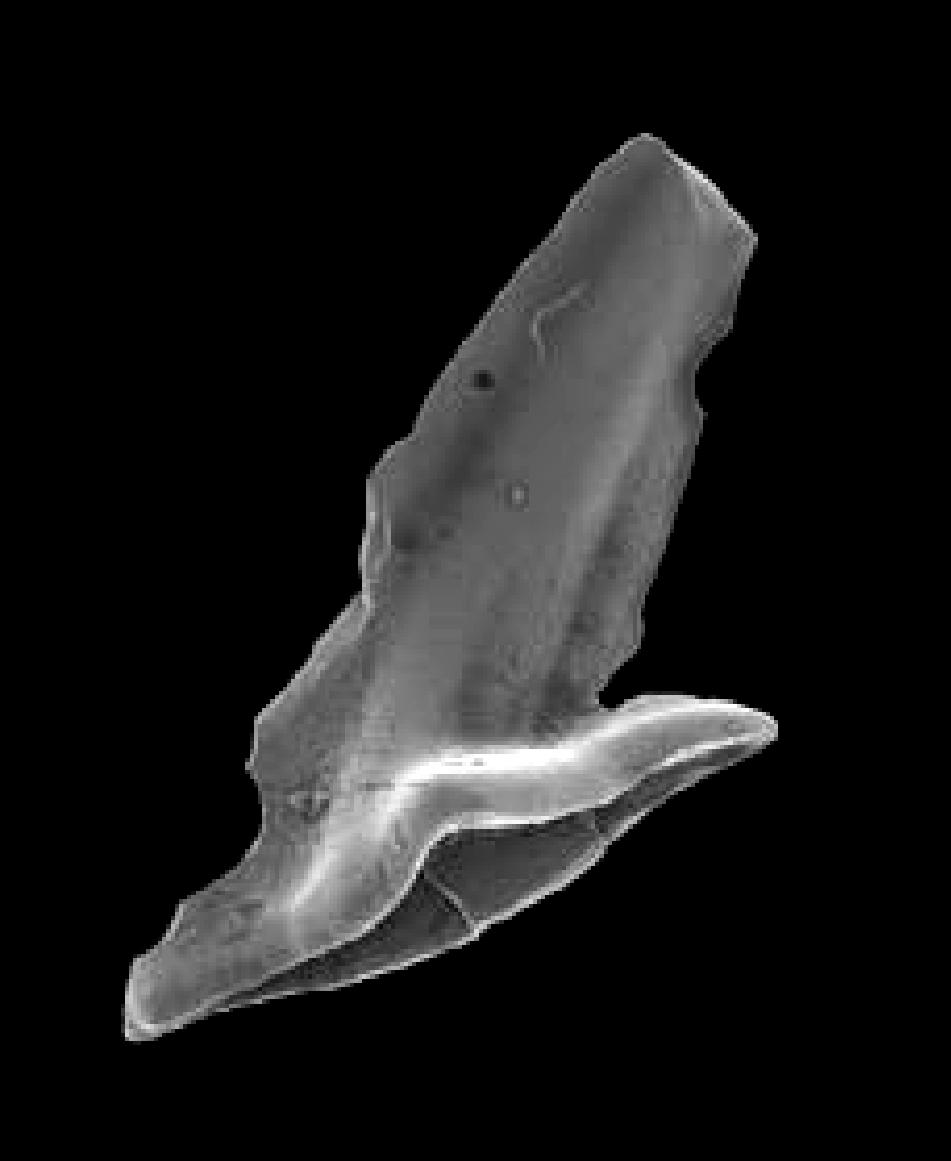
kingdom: Animalia
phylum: Chordata
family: Acodontidae
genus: Tripodus
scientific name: Tripodus
